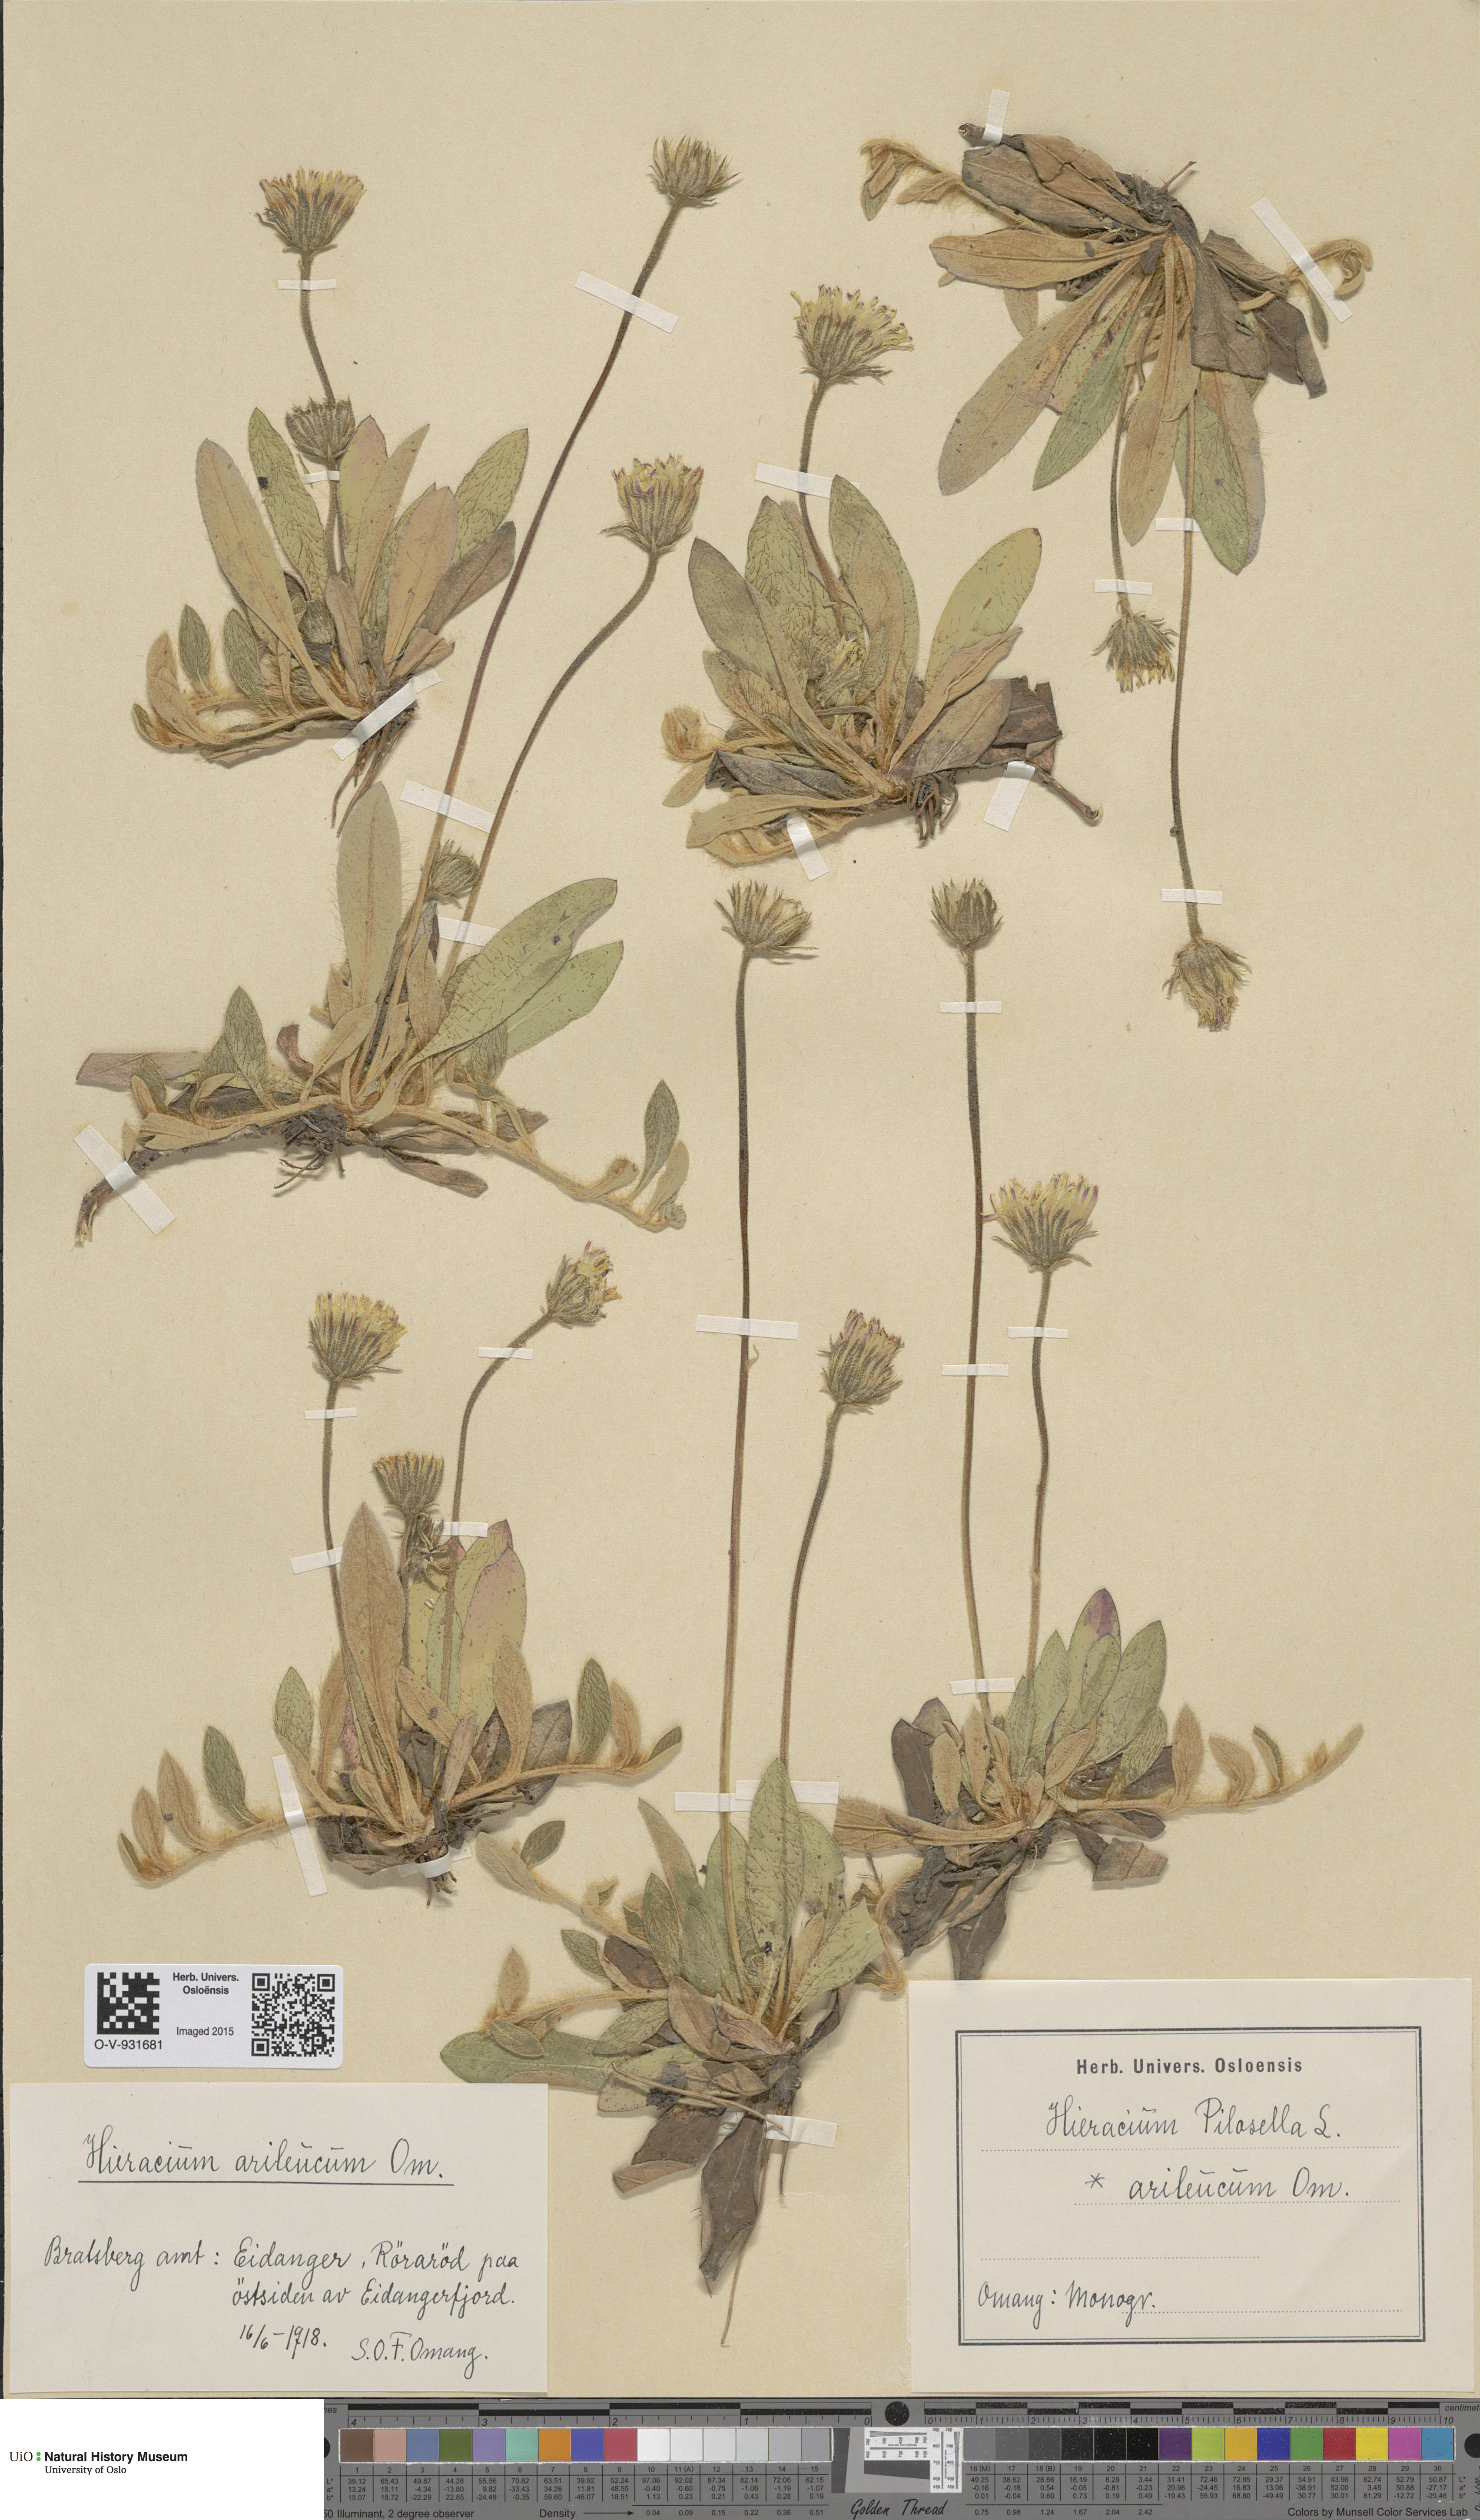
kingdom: Plantae
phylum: Tracheophyta
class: Magnoliopsida
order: Asterales
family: Asteraceae
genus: Pilosella
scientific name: Pilosella officinarum
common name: Mouse-ear hawkweed
